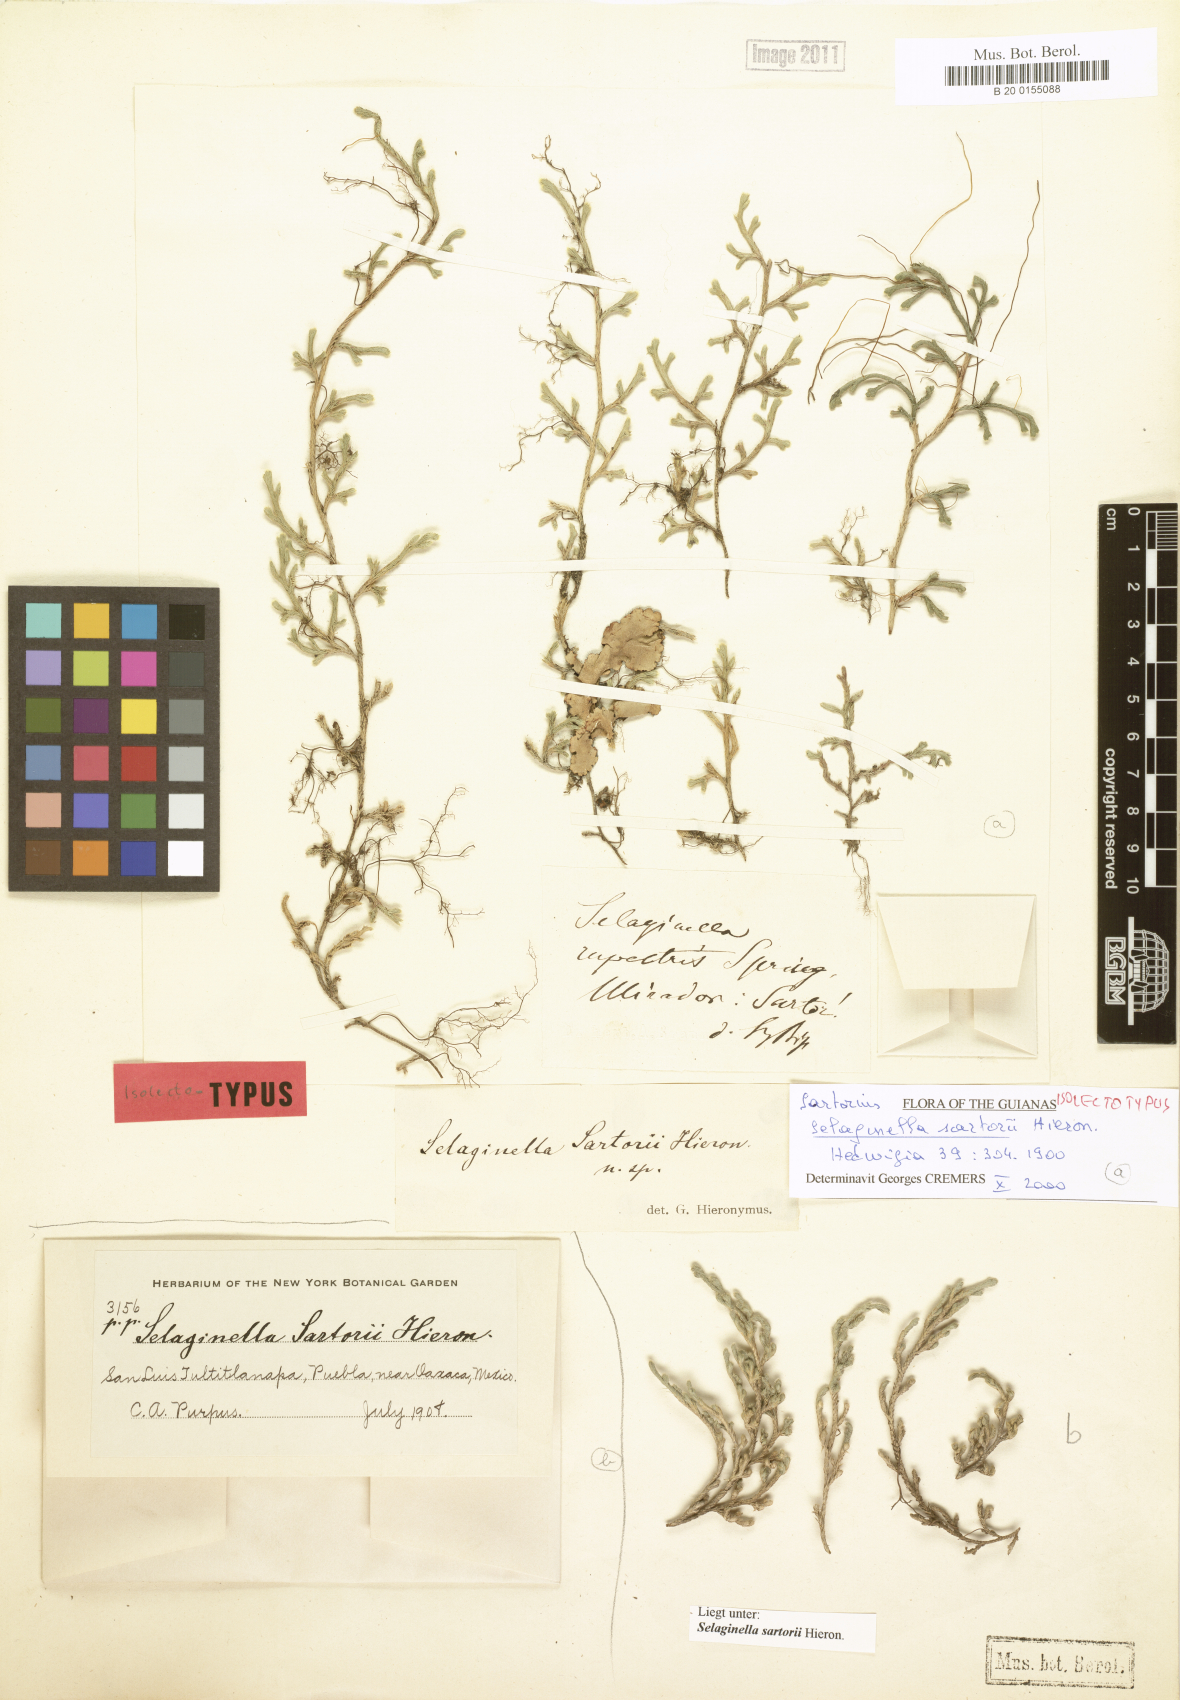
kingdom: Plantae
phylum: Tracheophyta
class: Lycopodiopsida
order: Selaginellales
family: Selaginellaceae
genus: Selaginella
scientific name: Selaginella sartorii
